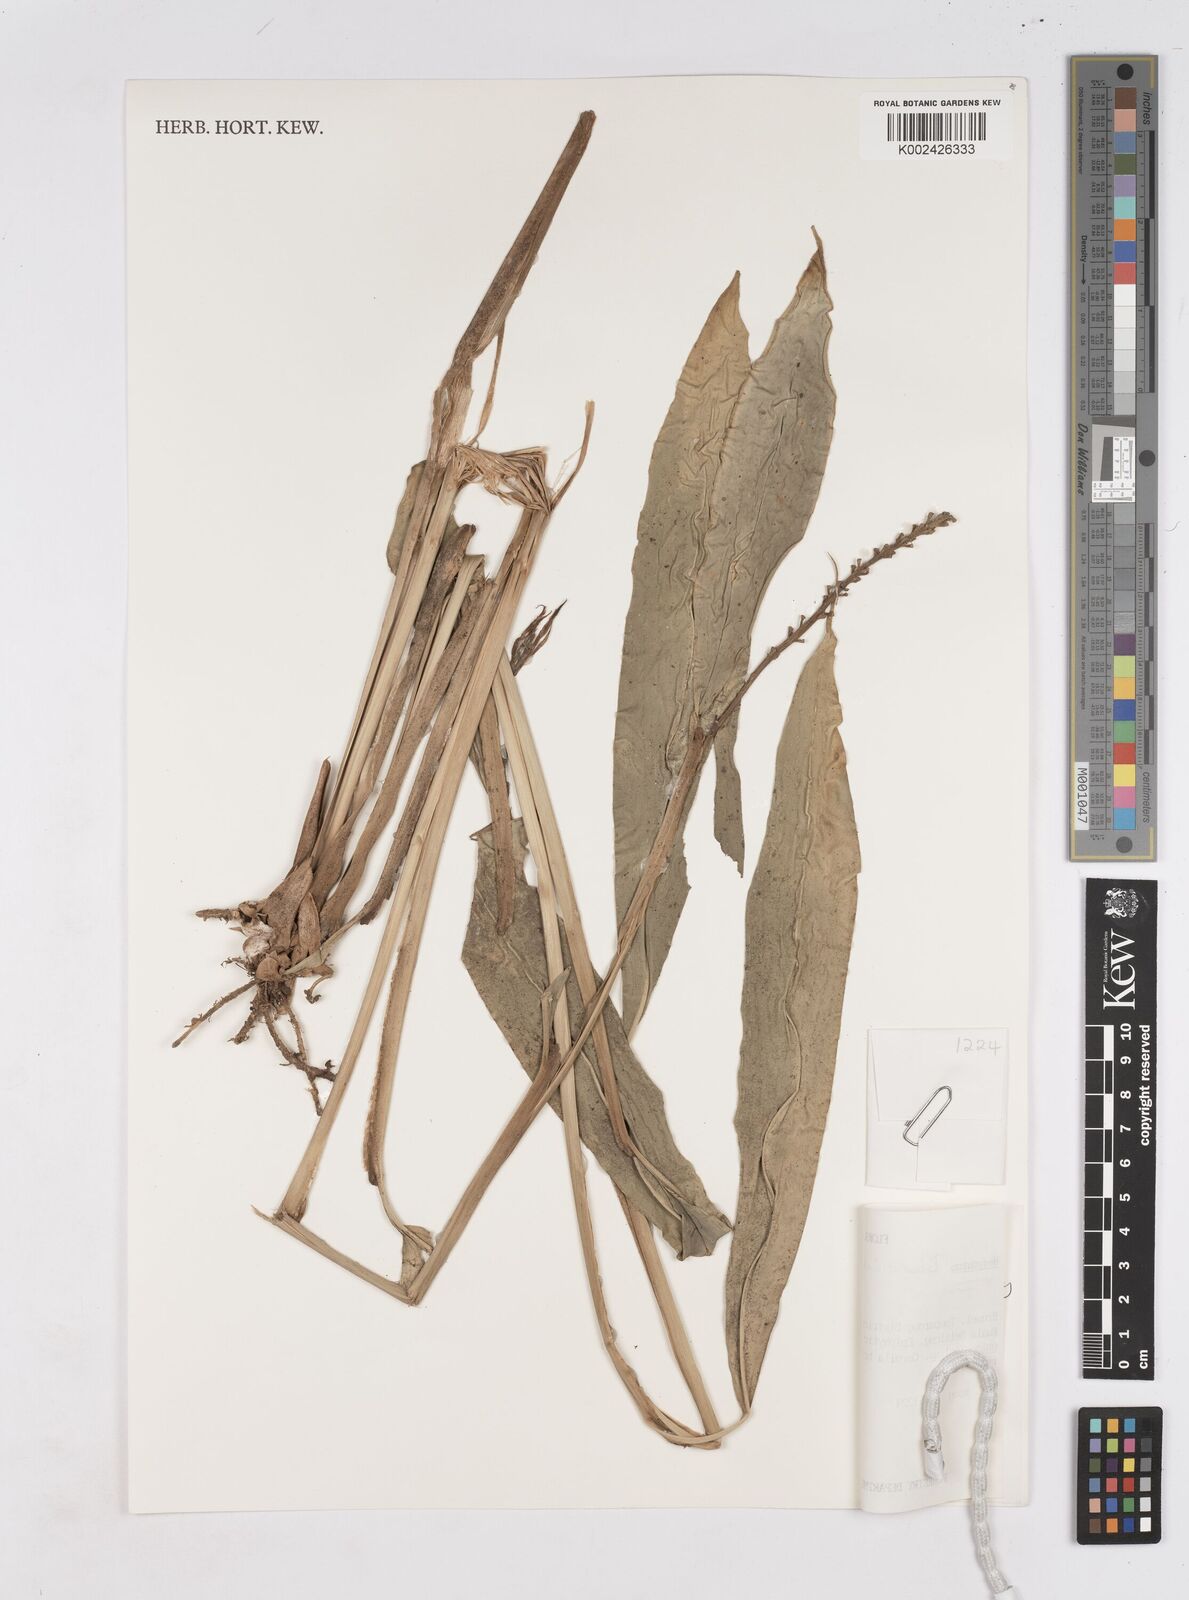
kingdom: Plantae
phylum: Tracheophyta
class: Liliopsida
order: Zingiberales
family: Zingiberaceae
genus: Burbidgea
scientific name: Burbidgea stenantha
